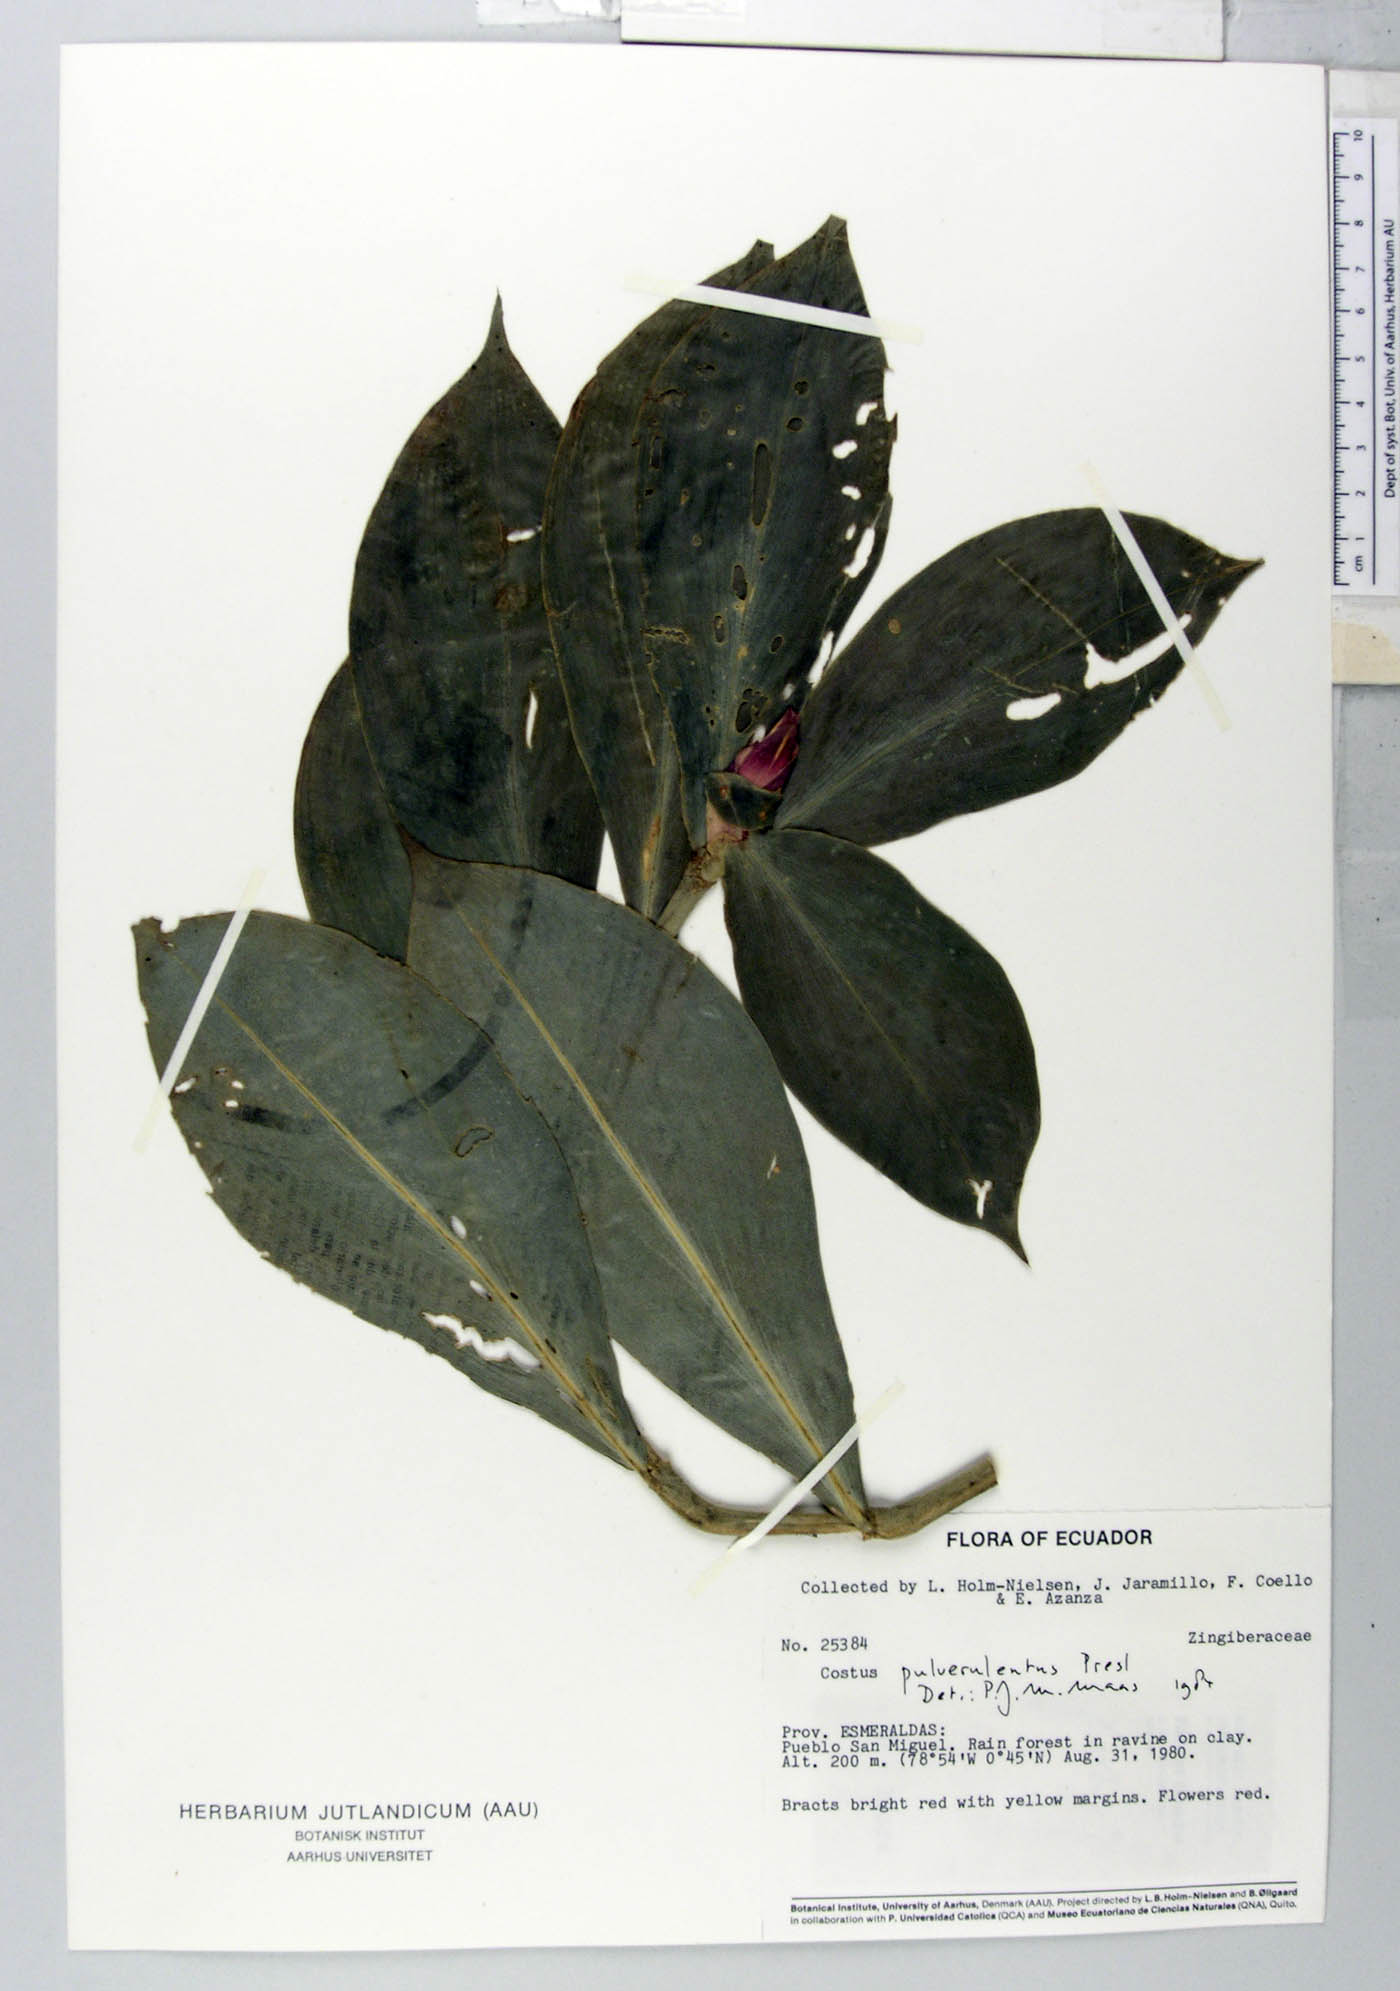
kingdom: Plantae
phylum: Tracheophyta
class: Liliopsida
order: Zingiberales
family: Costaceae
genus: Costus
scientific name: Costus pulverulentus
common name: Spiral ginger
